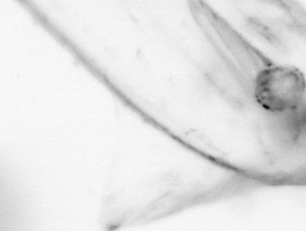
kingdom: Animalia
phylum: Arthropoda
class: Copepoda
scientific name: Copepoda
